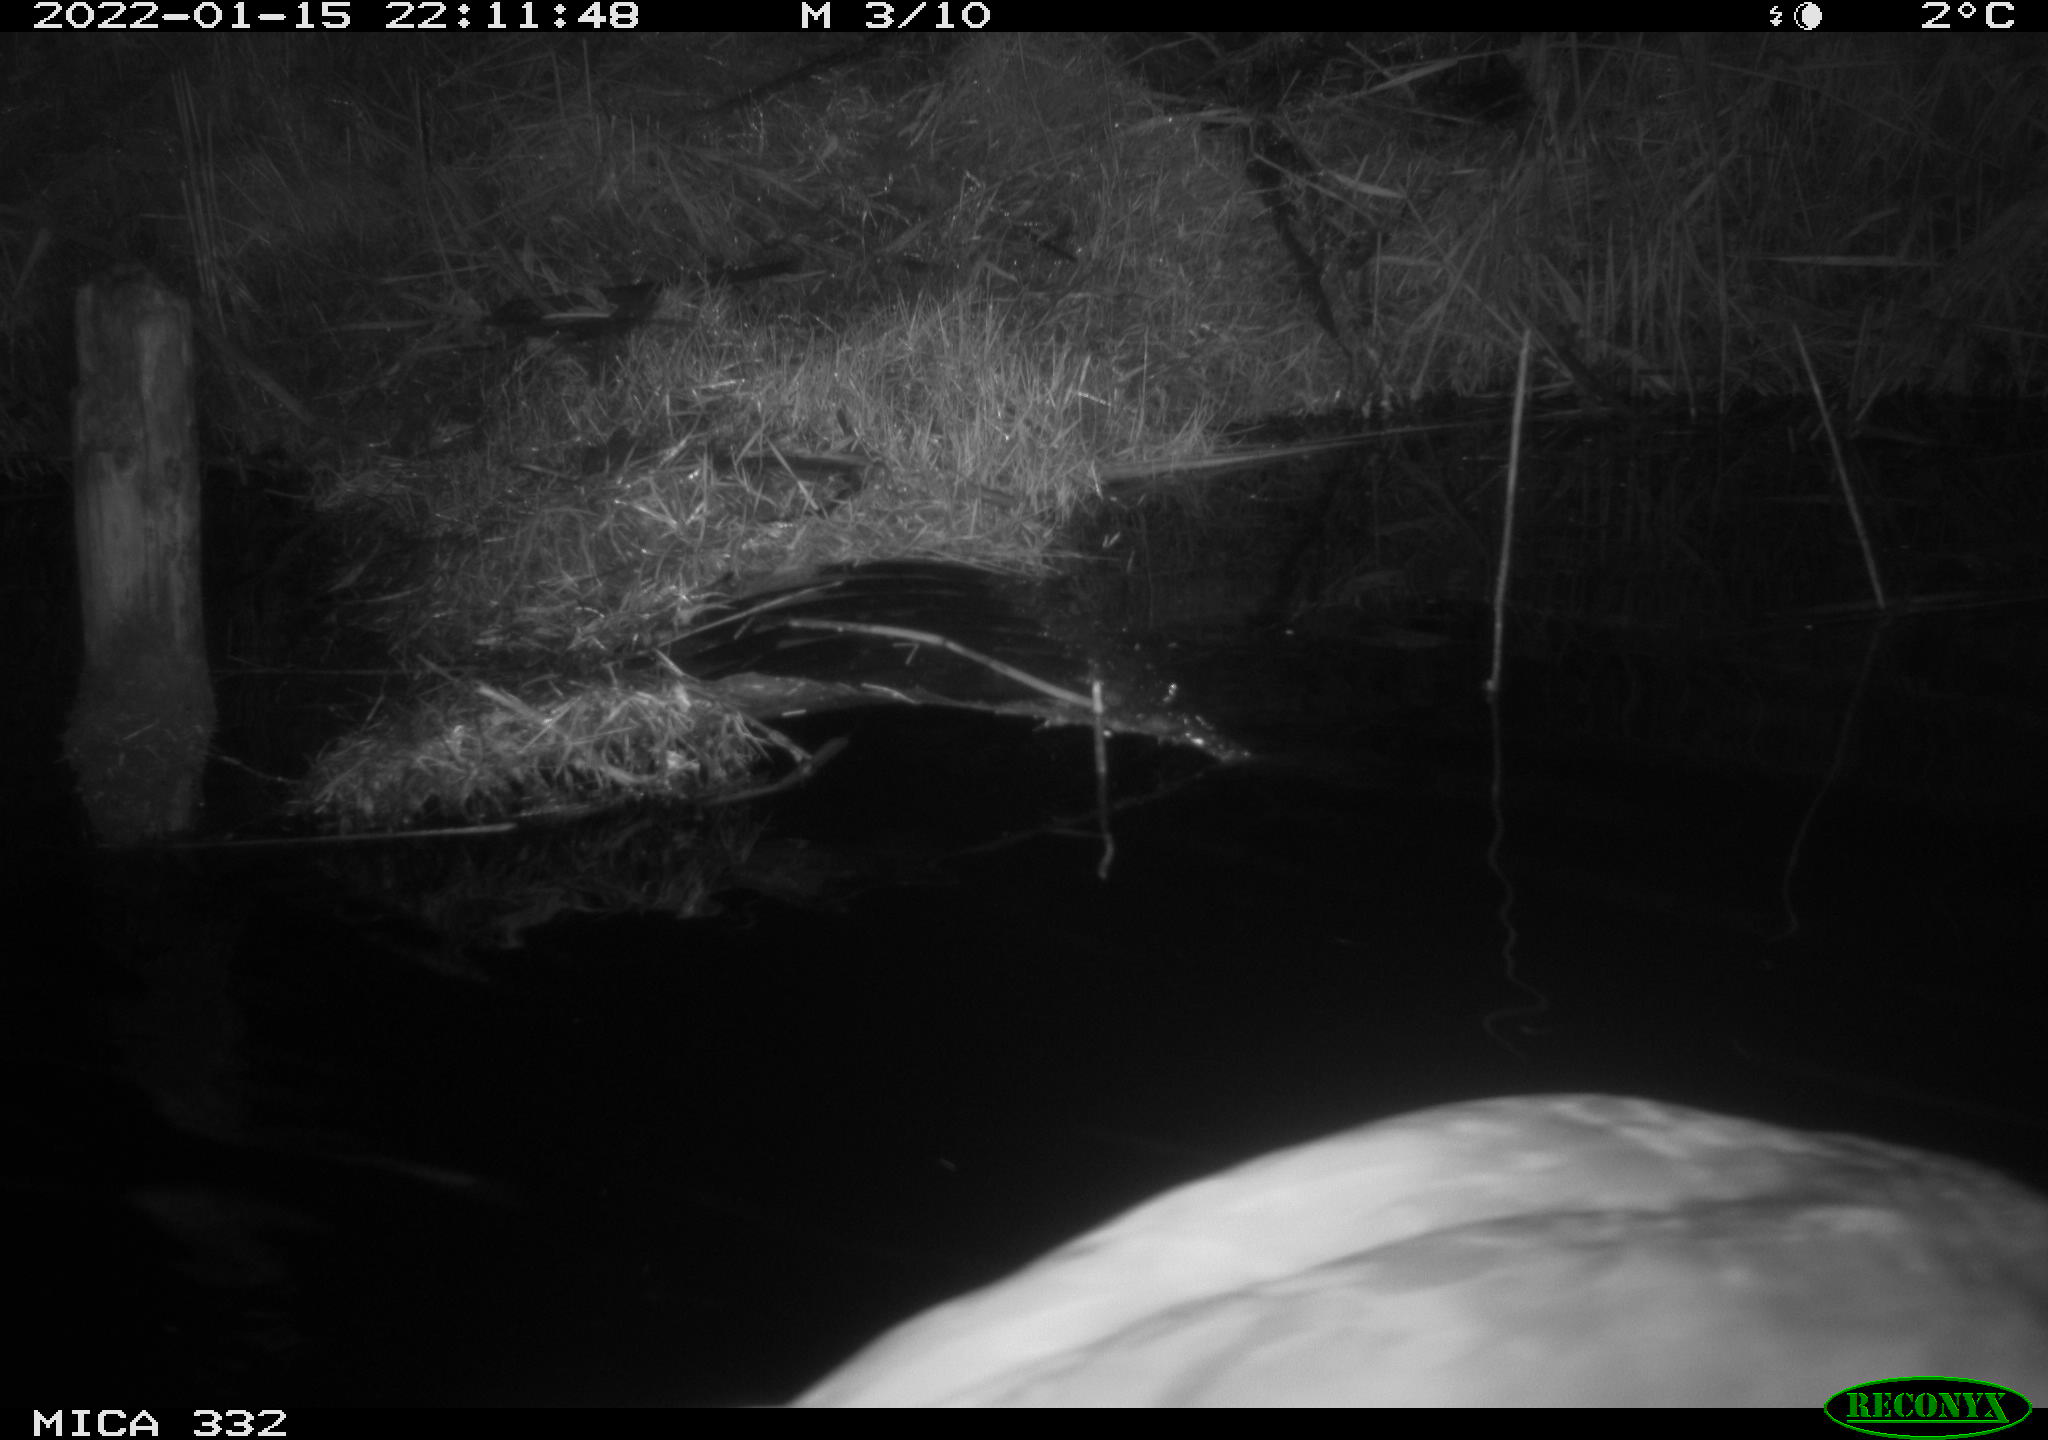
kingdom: Animalia
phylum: Chordata
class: Aves
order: Anseriformes
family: Anatidae
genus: Cygnus
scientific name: Cygnus olor
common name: Mute swan
